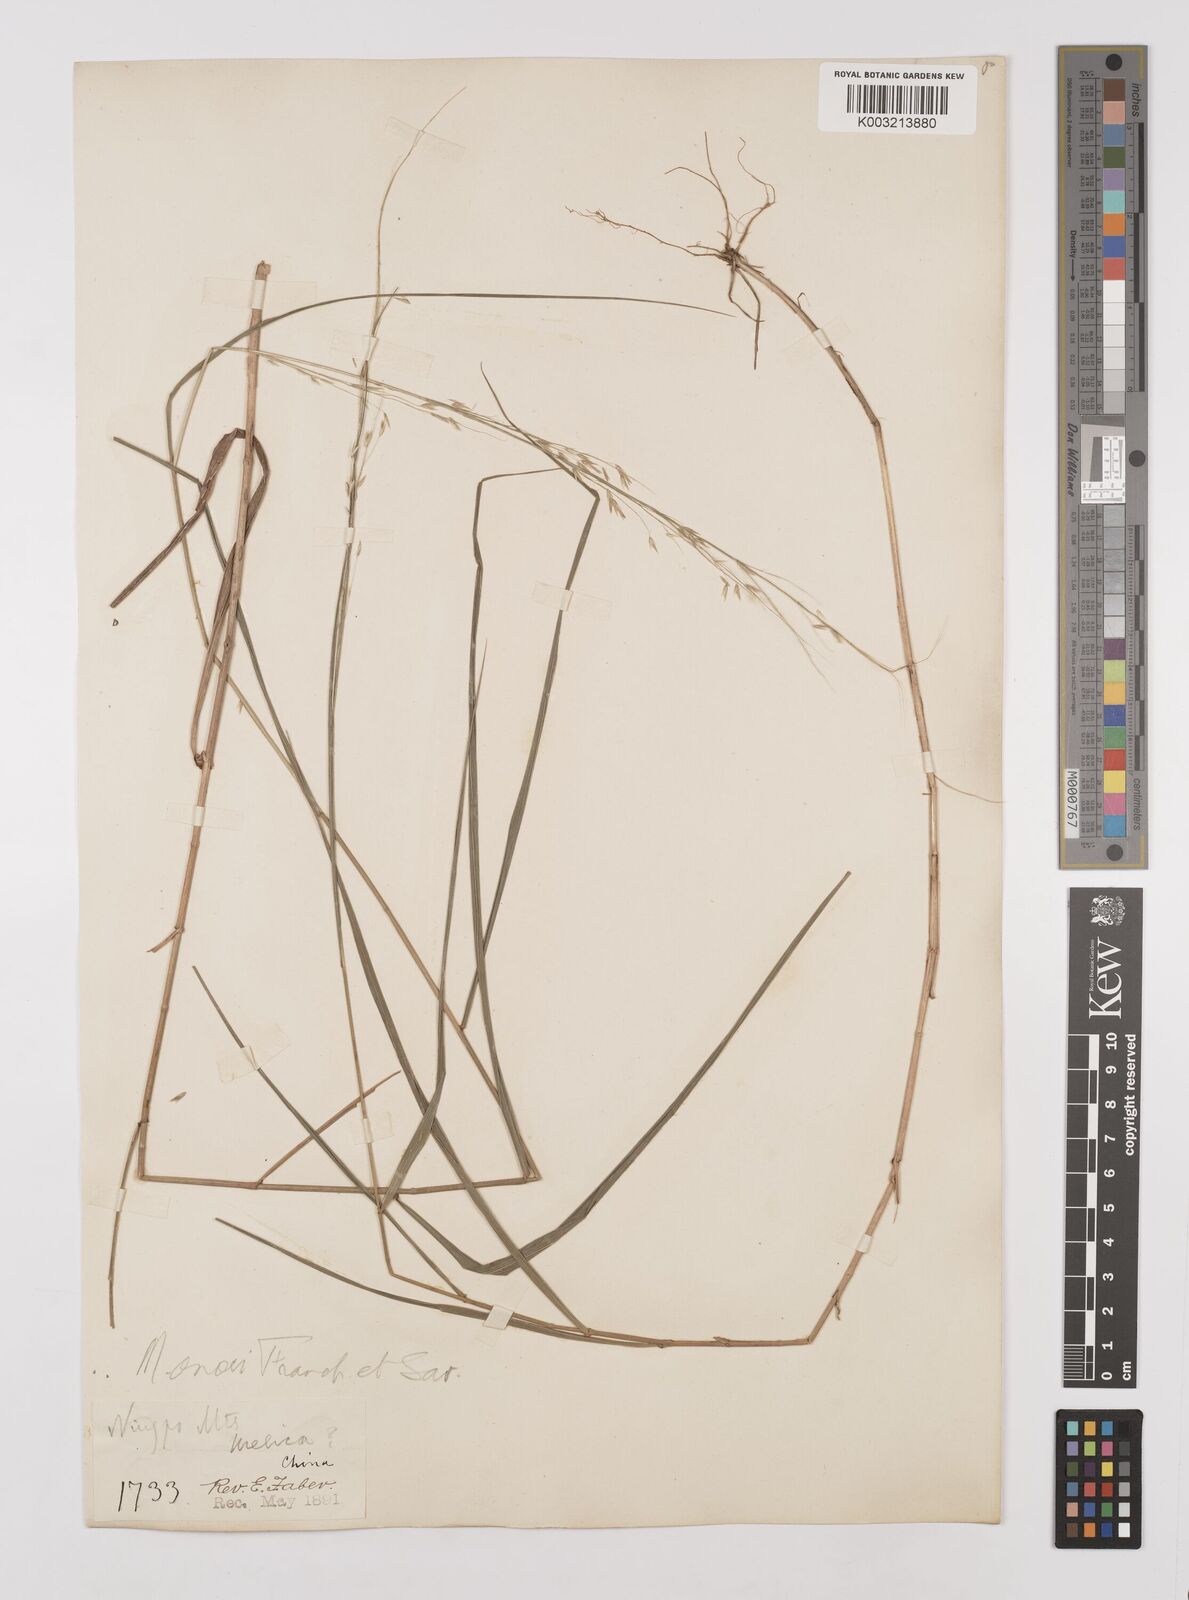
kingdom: Plantae
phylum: Tracheophyta
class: Liliopsida
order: Poales
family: Poaceae
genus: Melica
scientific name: Melica onoei
